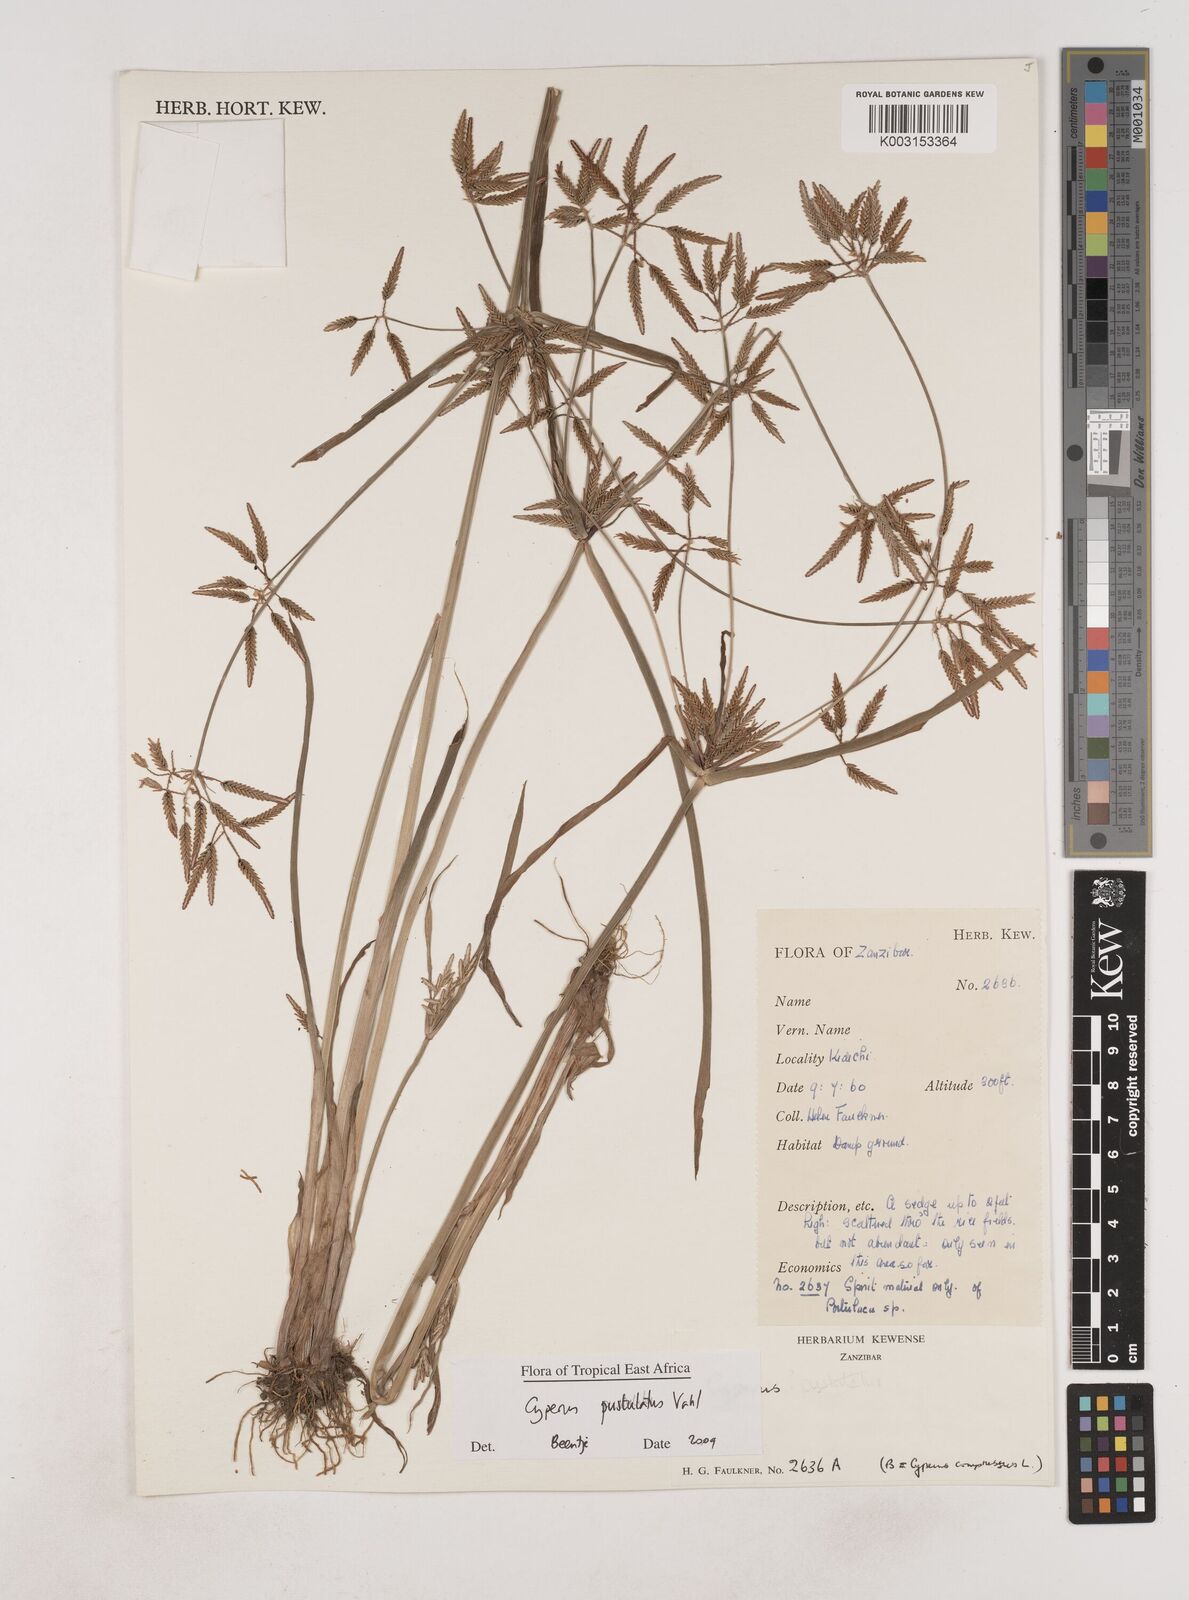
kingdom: Plantae
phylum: Tracheophyta
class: Liliopsida
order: Poales
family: Cyperaceae
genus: Cyperus
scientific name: Cyperus pustulatus
